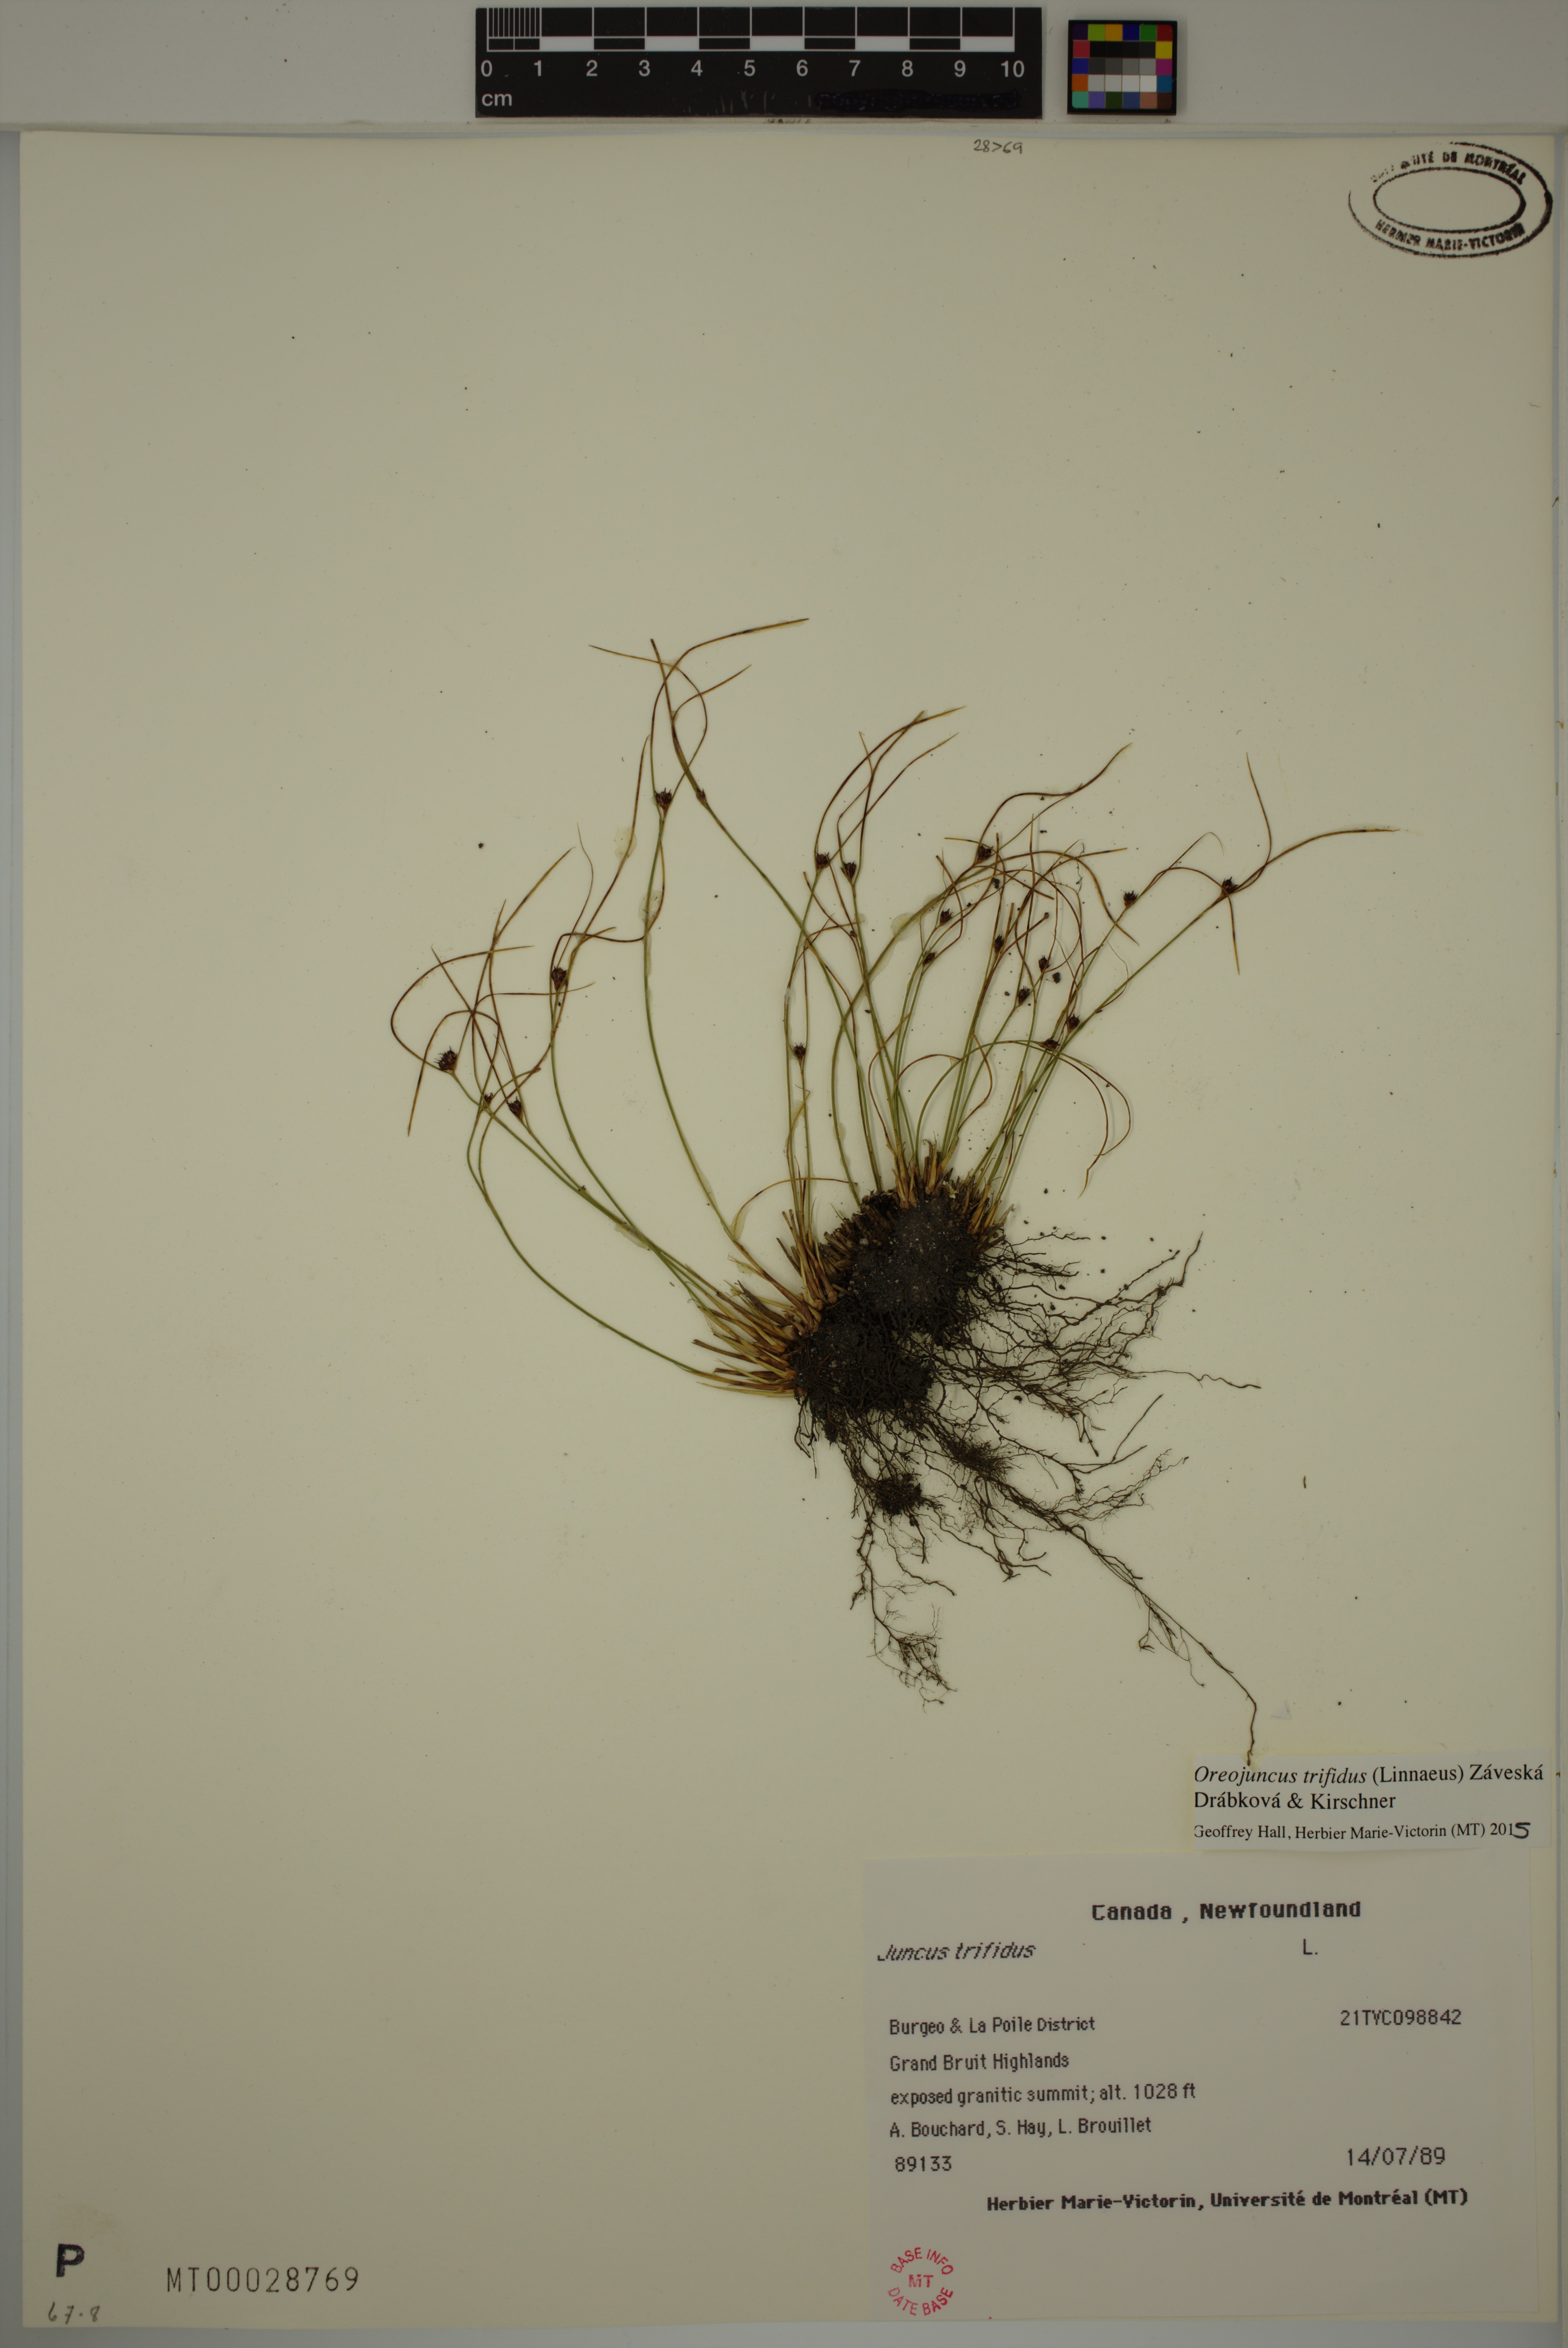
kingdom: Plantae
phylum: Tracheophyta
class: Liliopsida
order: Poales
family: Juncaceae
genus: Oreojuncus
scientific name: Oreojuncus trifidus
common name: Highland rush
